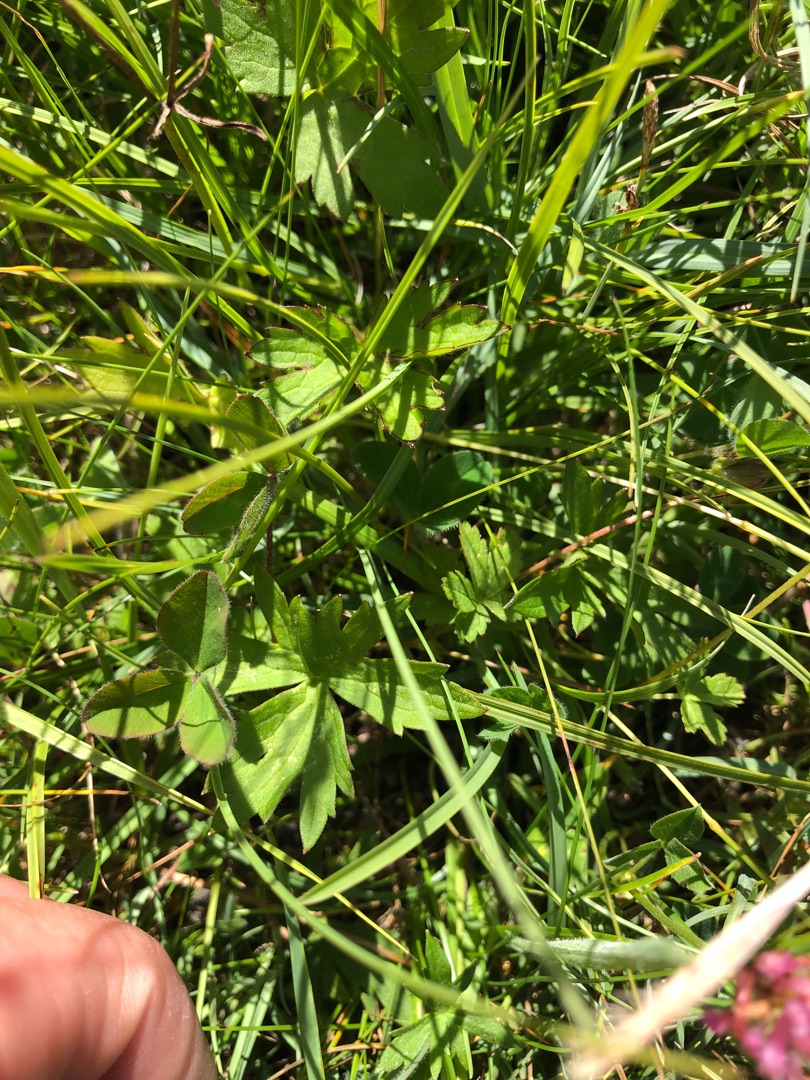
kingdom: Plantae
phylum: Tracheophyta
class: Magnoliopsida
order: Ranunculales
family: Ranunculaceae
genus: Ranunculus
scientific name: Ranunculus acris
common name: Bidende ranunkel
